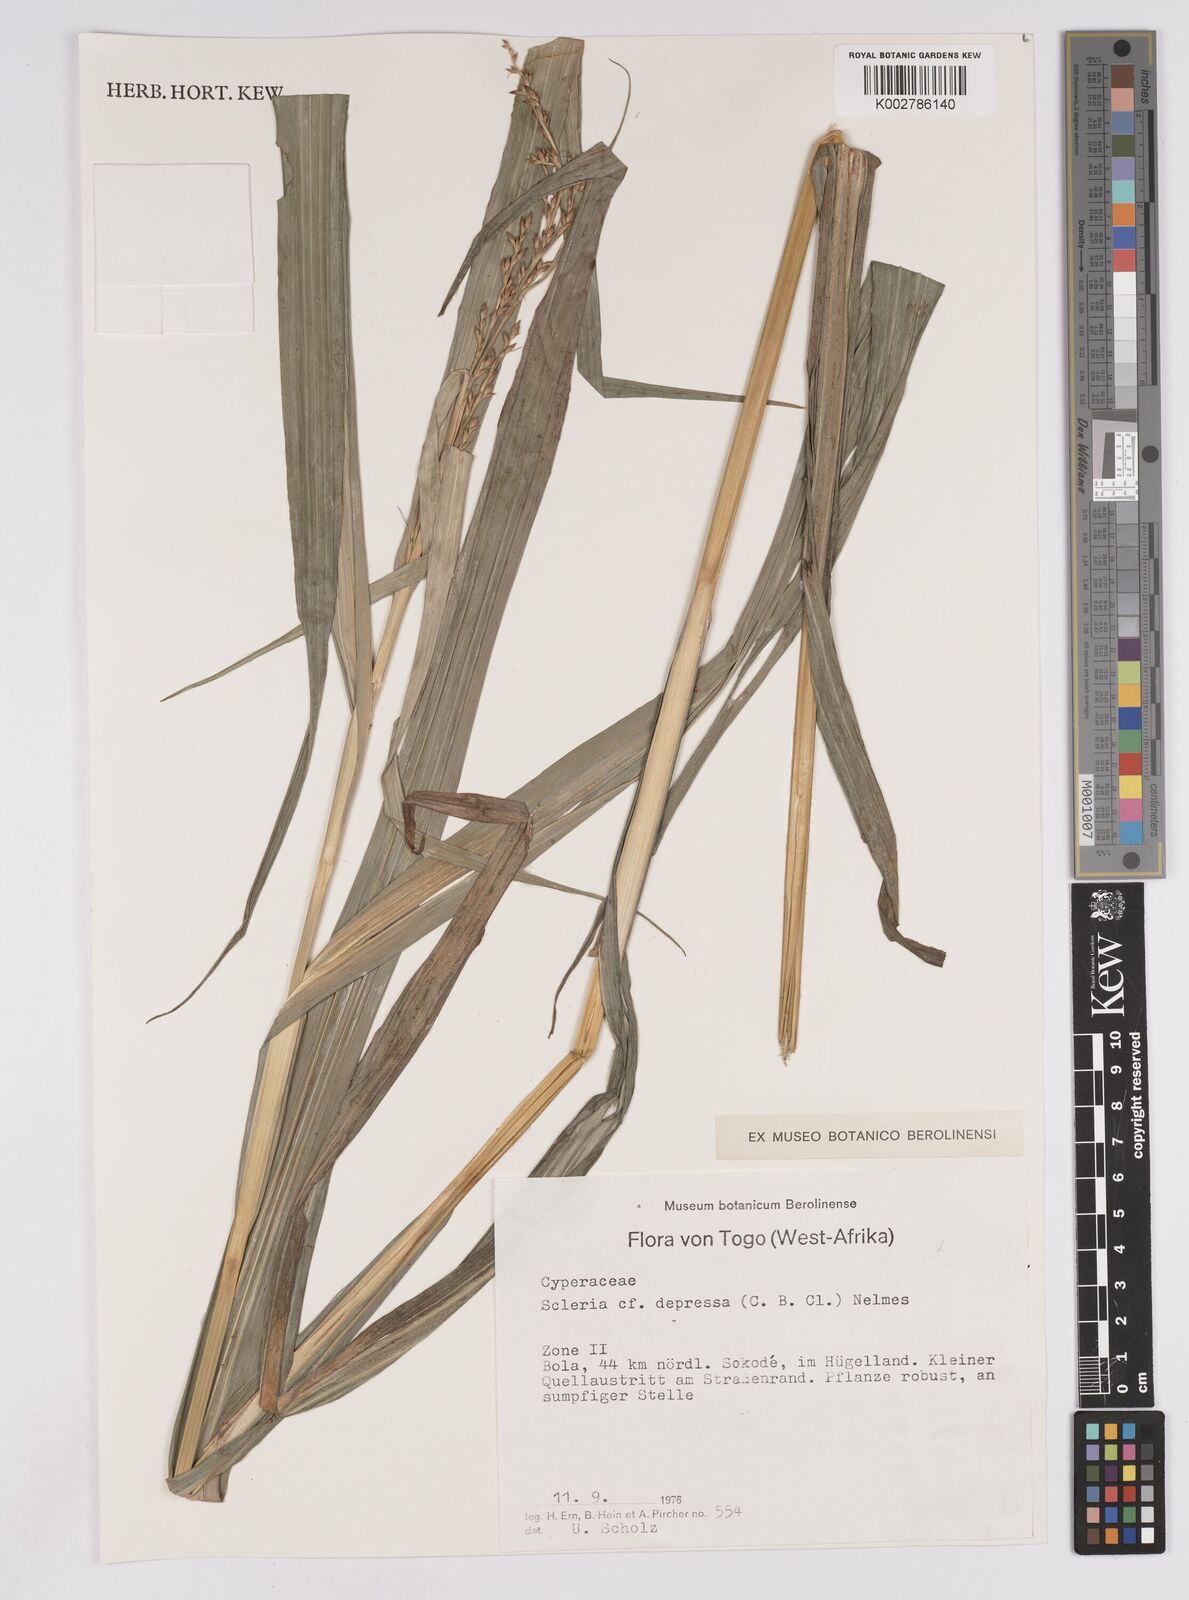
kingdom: Plantae
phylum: Tracheophyta
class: Liliopsida
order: Poales
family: Cyperaceae
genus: Scleria
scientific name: Scleria depressa
